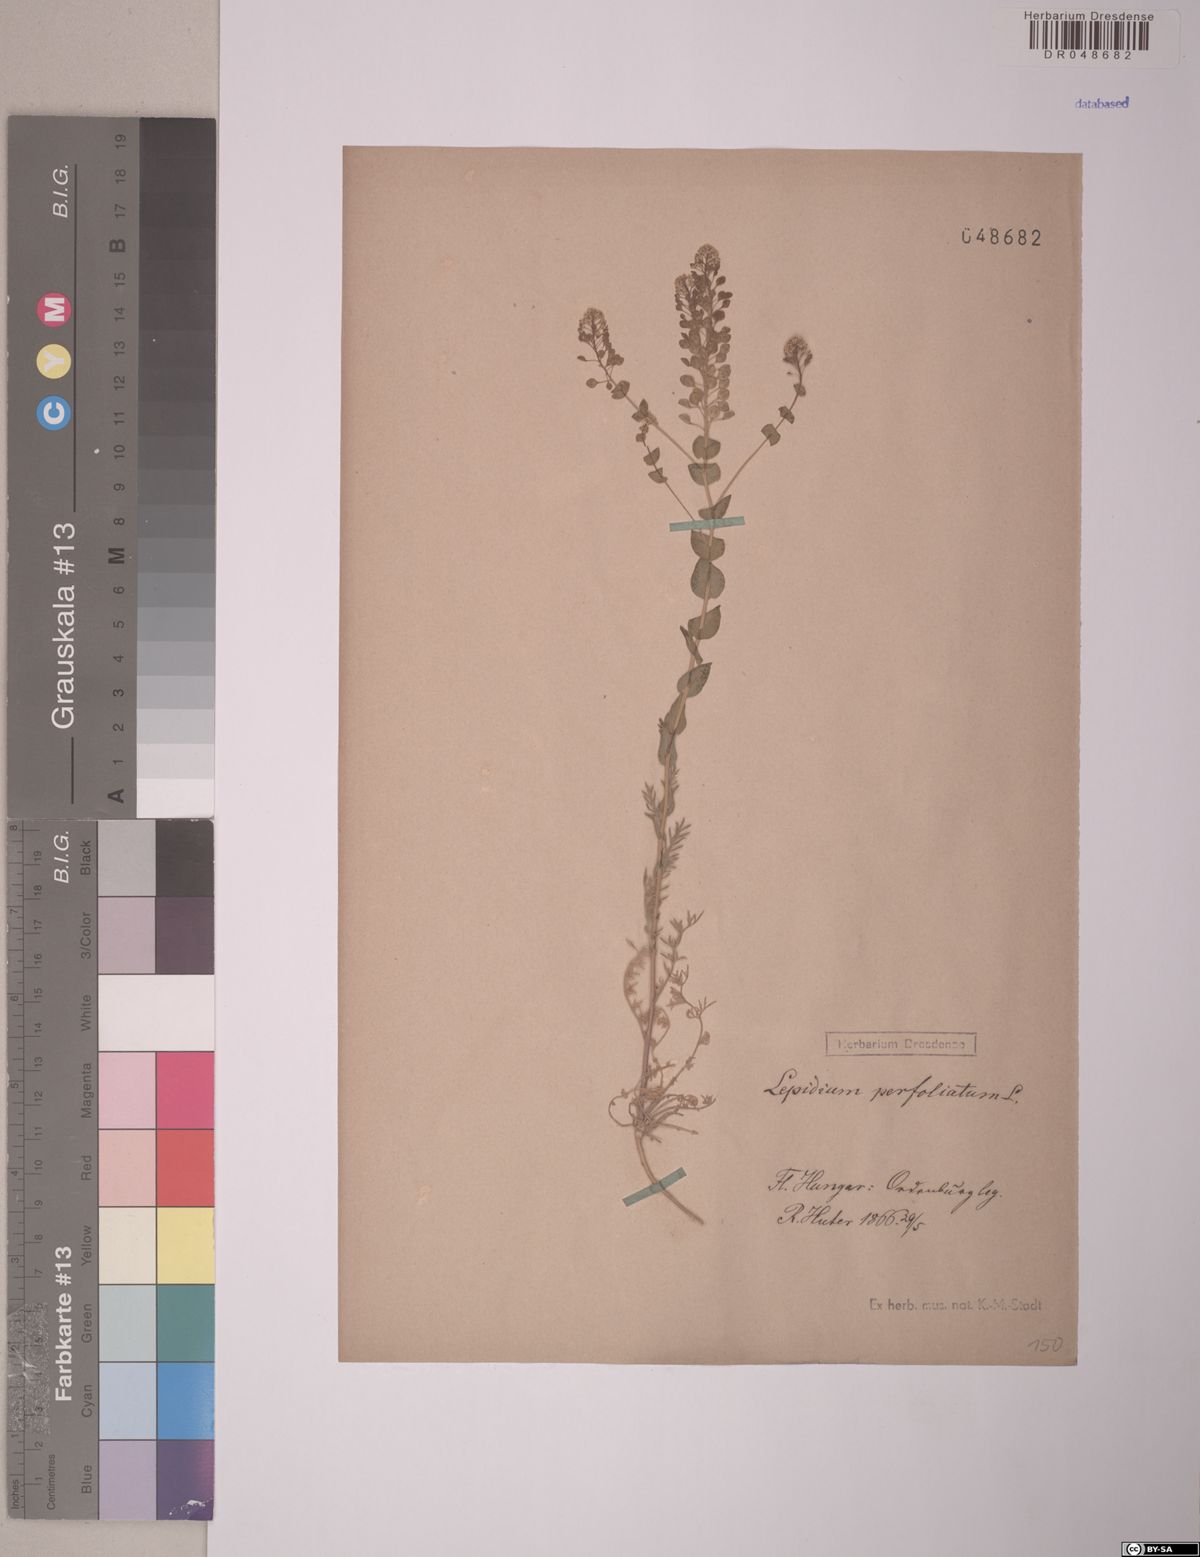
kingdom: Plantae
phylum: Tracheophyta
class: Magnoliopsida
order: Brassicales
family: Brassicaceae
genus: Lepidium
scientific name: Lepidium perfoliatum
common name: Perfoliate pepperwort
